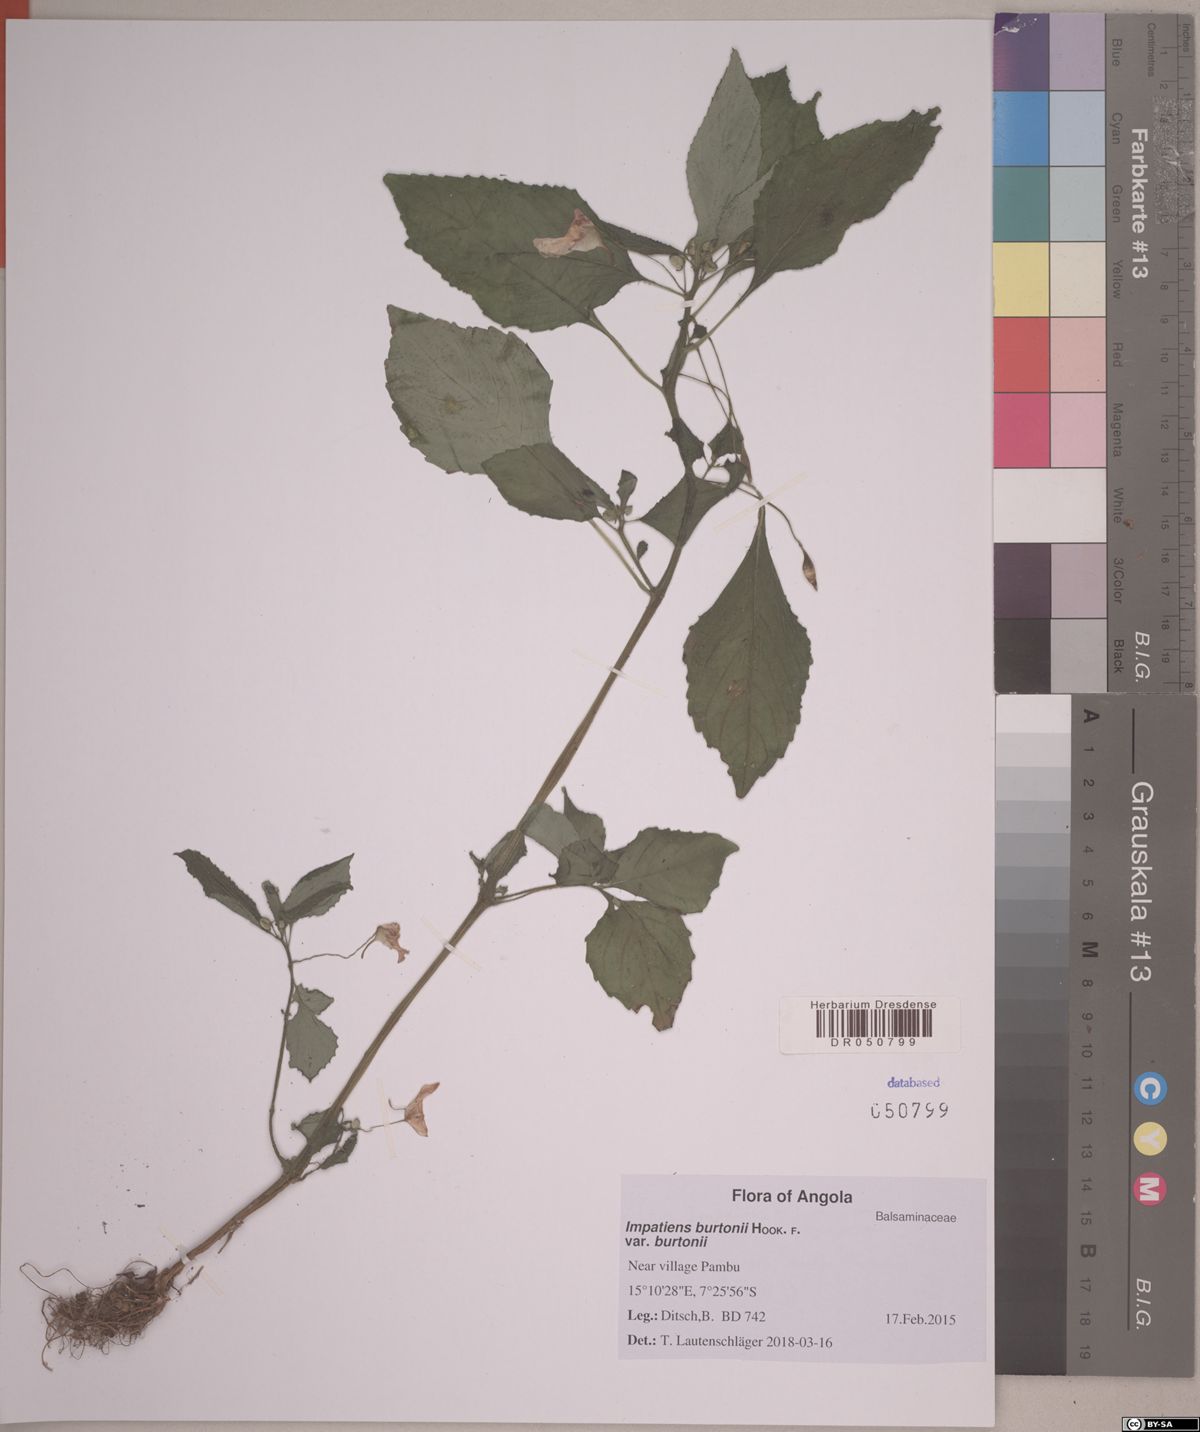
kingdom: Plantae
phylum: Tracheophyta
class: Magnoliopsida
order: Ericales
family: Balsaminaceae
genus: Impatiens
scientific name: Impatiens burtonii
